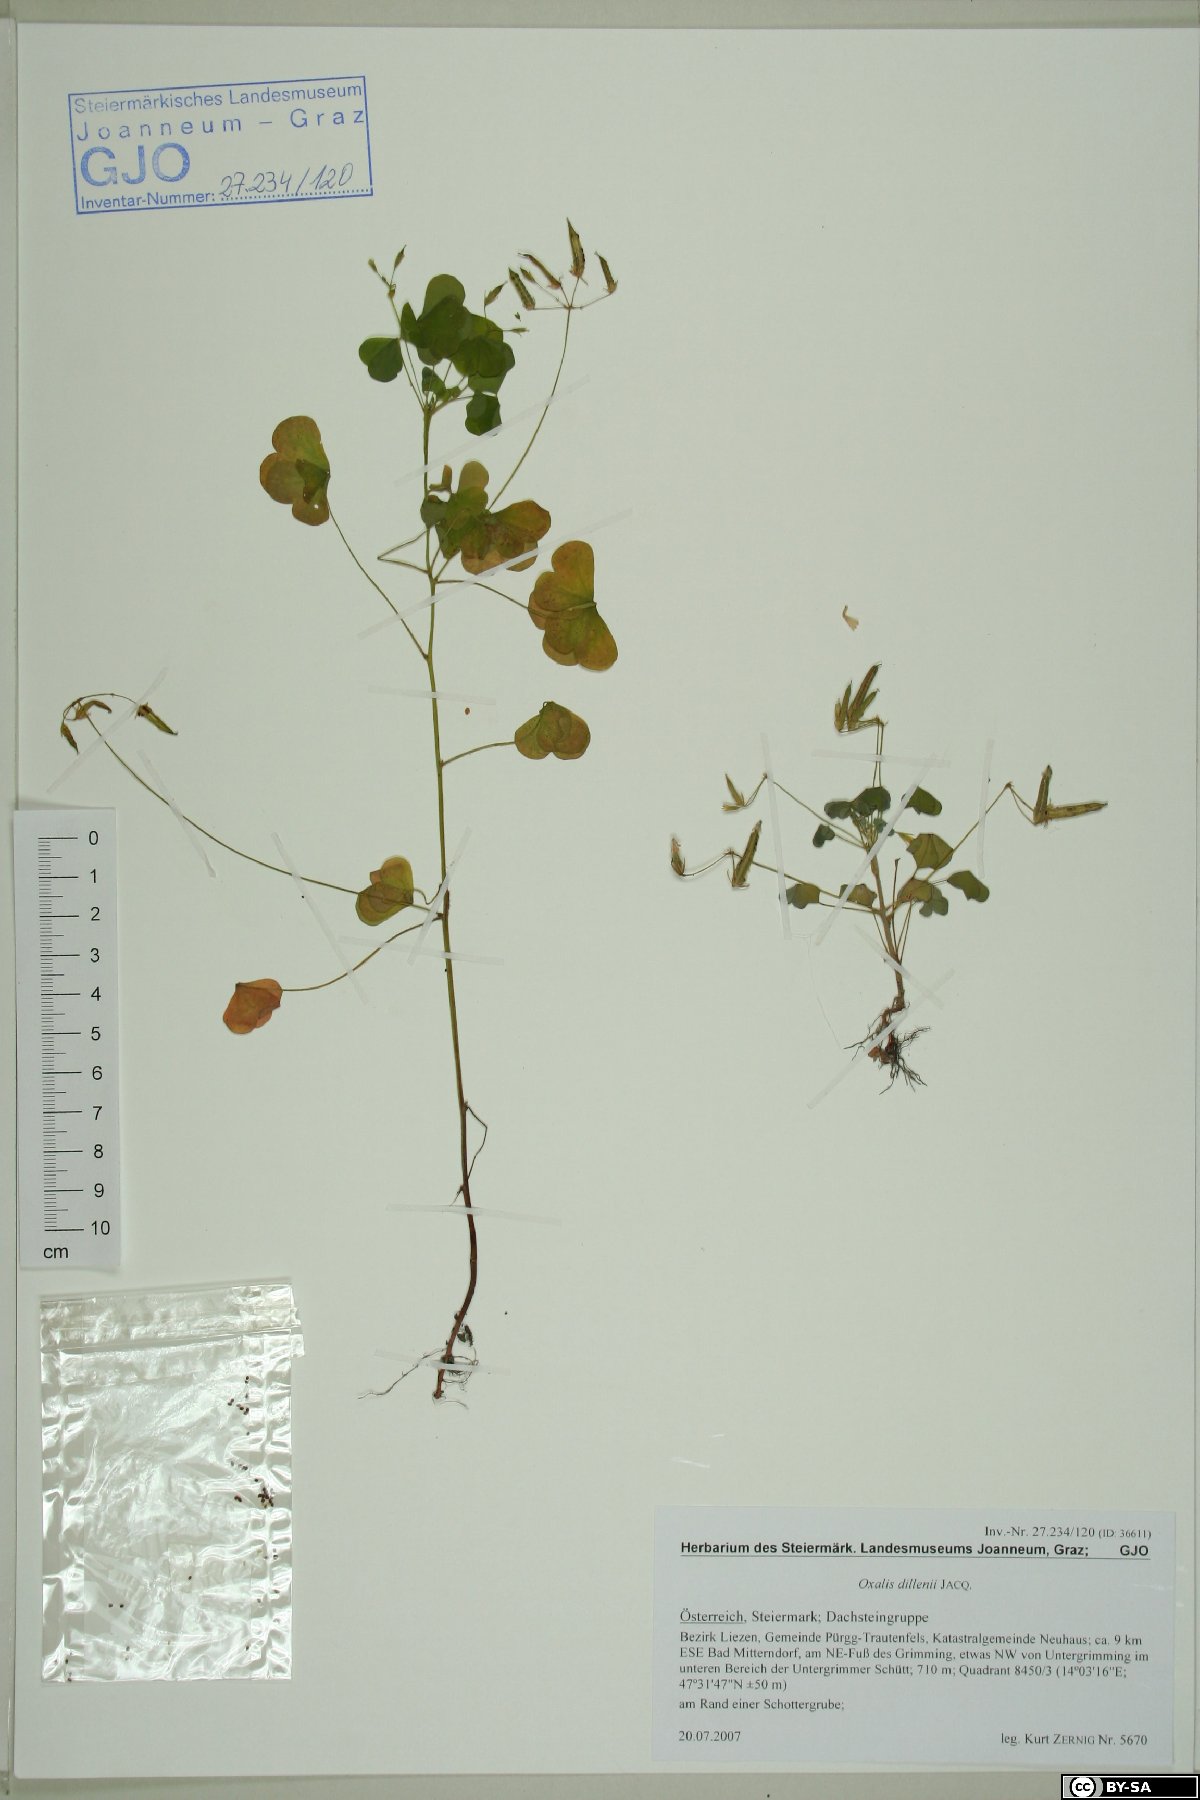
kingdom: Plantae
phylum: Tracheophyta
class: Magnoliopsida
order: Oxalidales
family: Oxalidaceae
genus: Oxalis
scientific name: Oxalis dillenii
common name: Sussex yellow-sorrel
